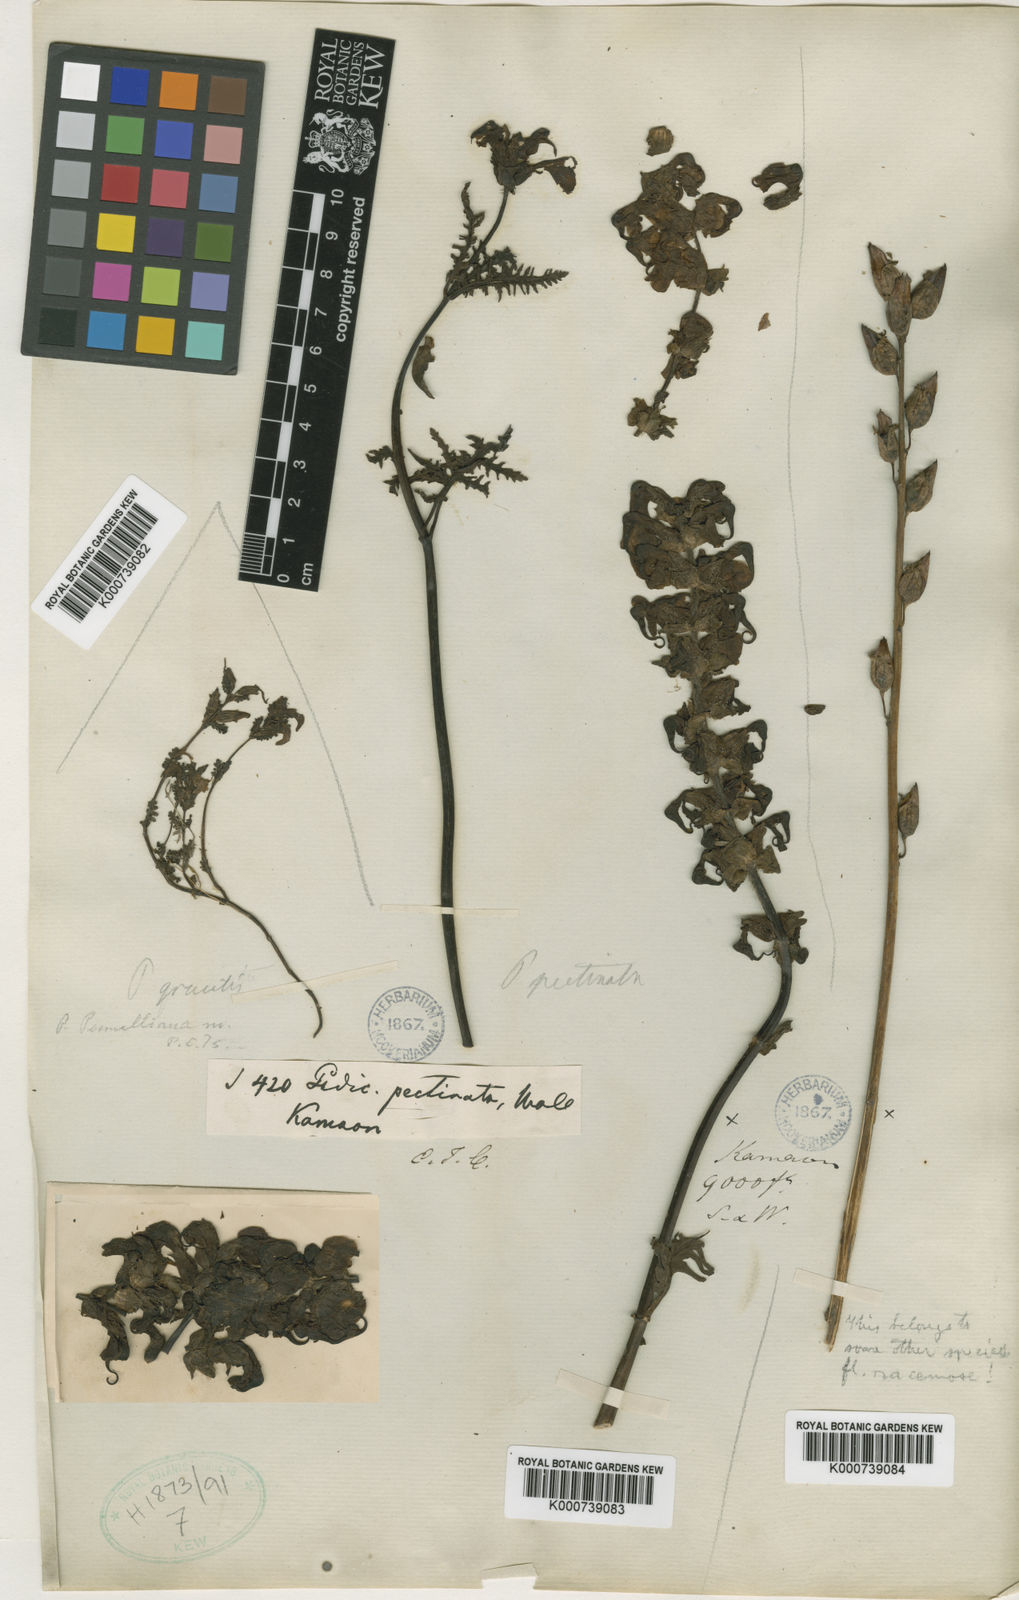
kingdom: Plantae
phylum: Tracheophyta
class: Magnoliopsida
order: Lamiales
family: Orobanchaceae
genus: Pedicularis
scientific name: Pedicularis
